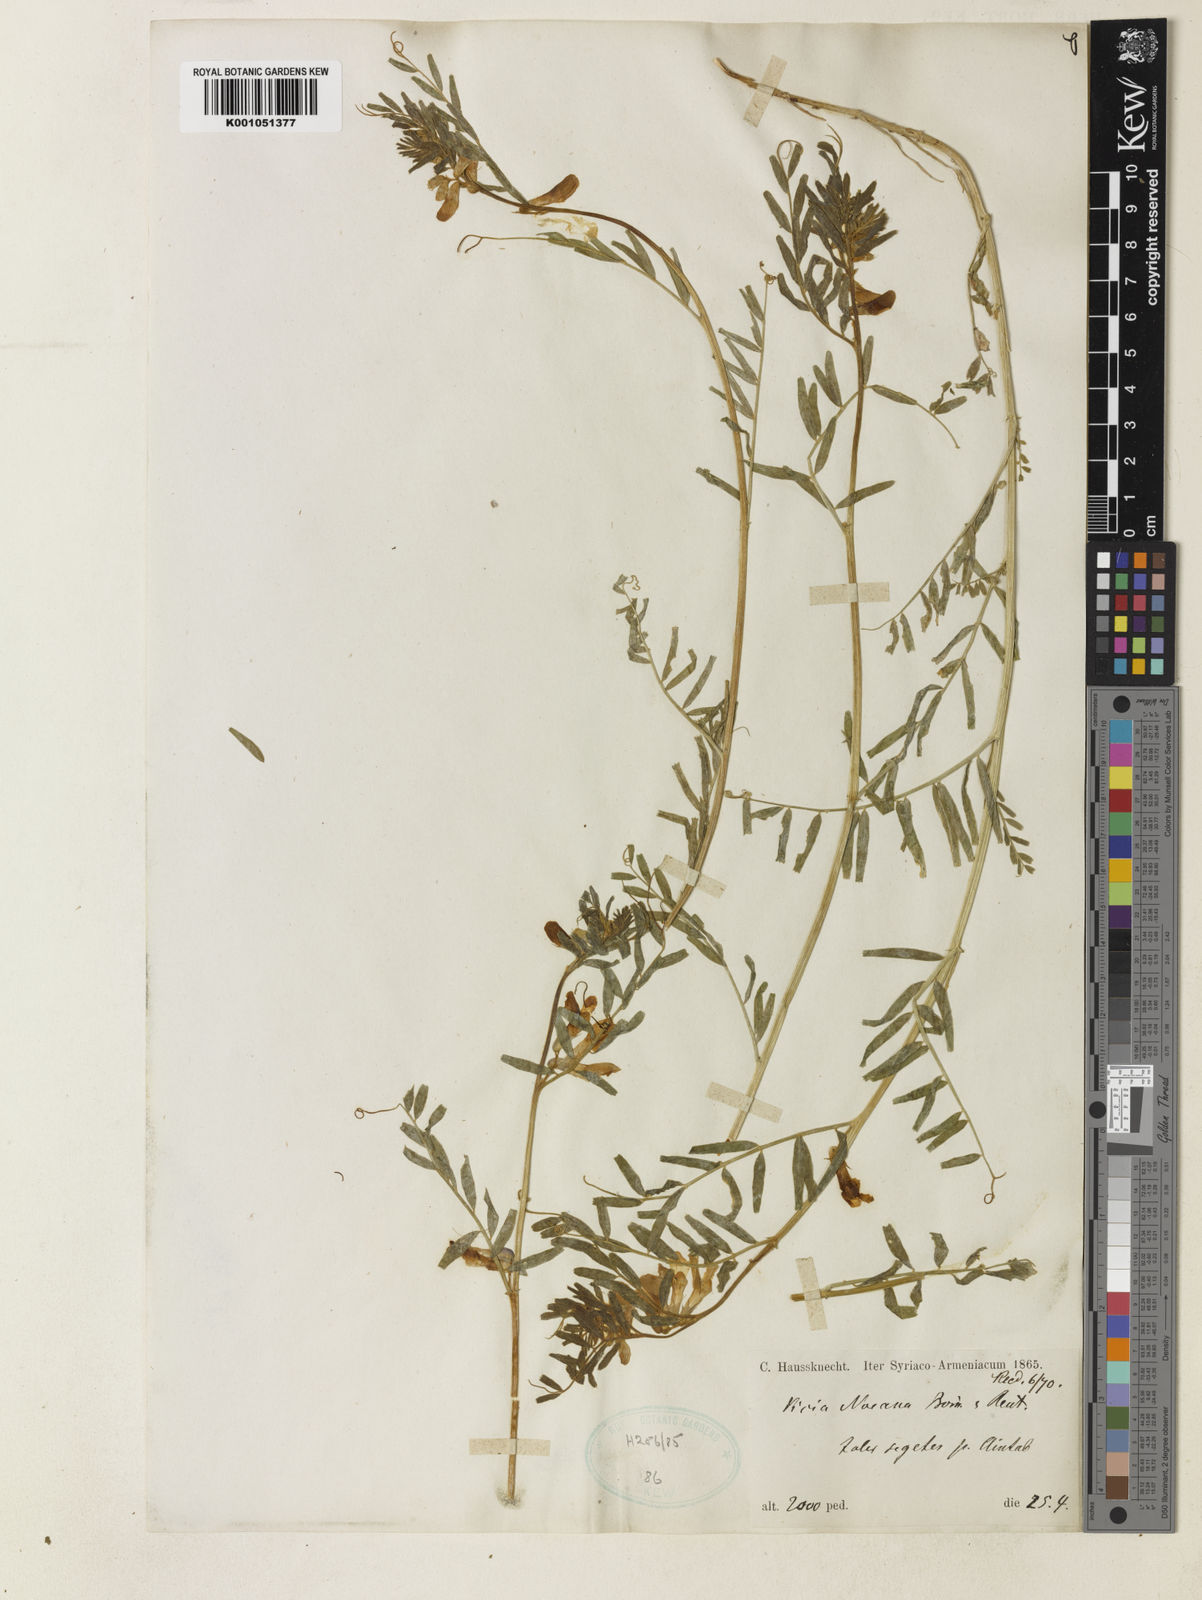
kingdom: Plantae
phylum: Tracheophyta
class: Magnoliopsida
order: Fabales
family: Fabaceae
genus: Vicia
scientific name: Vicia assyriaca
